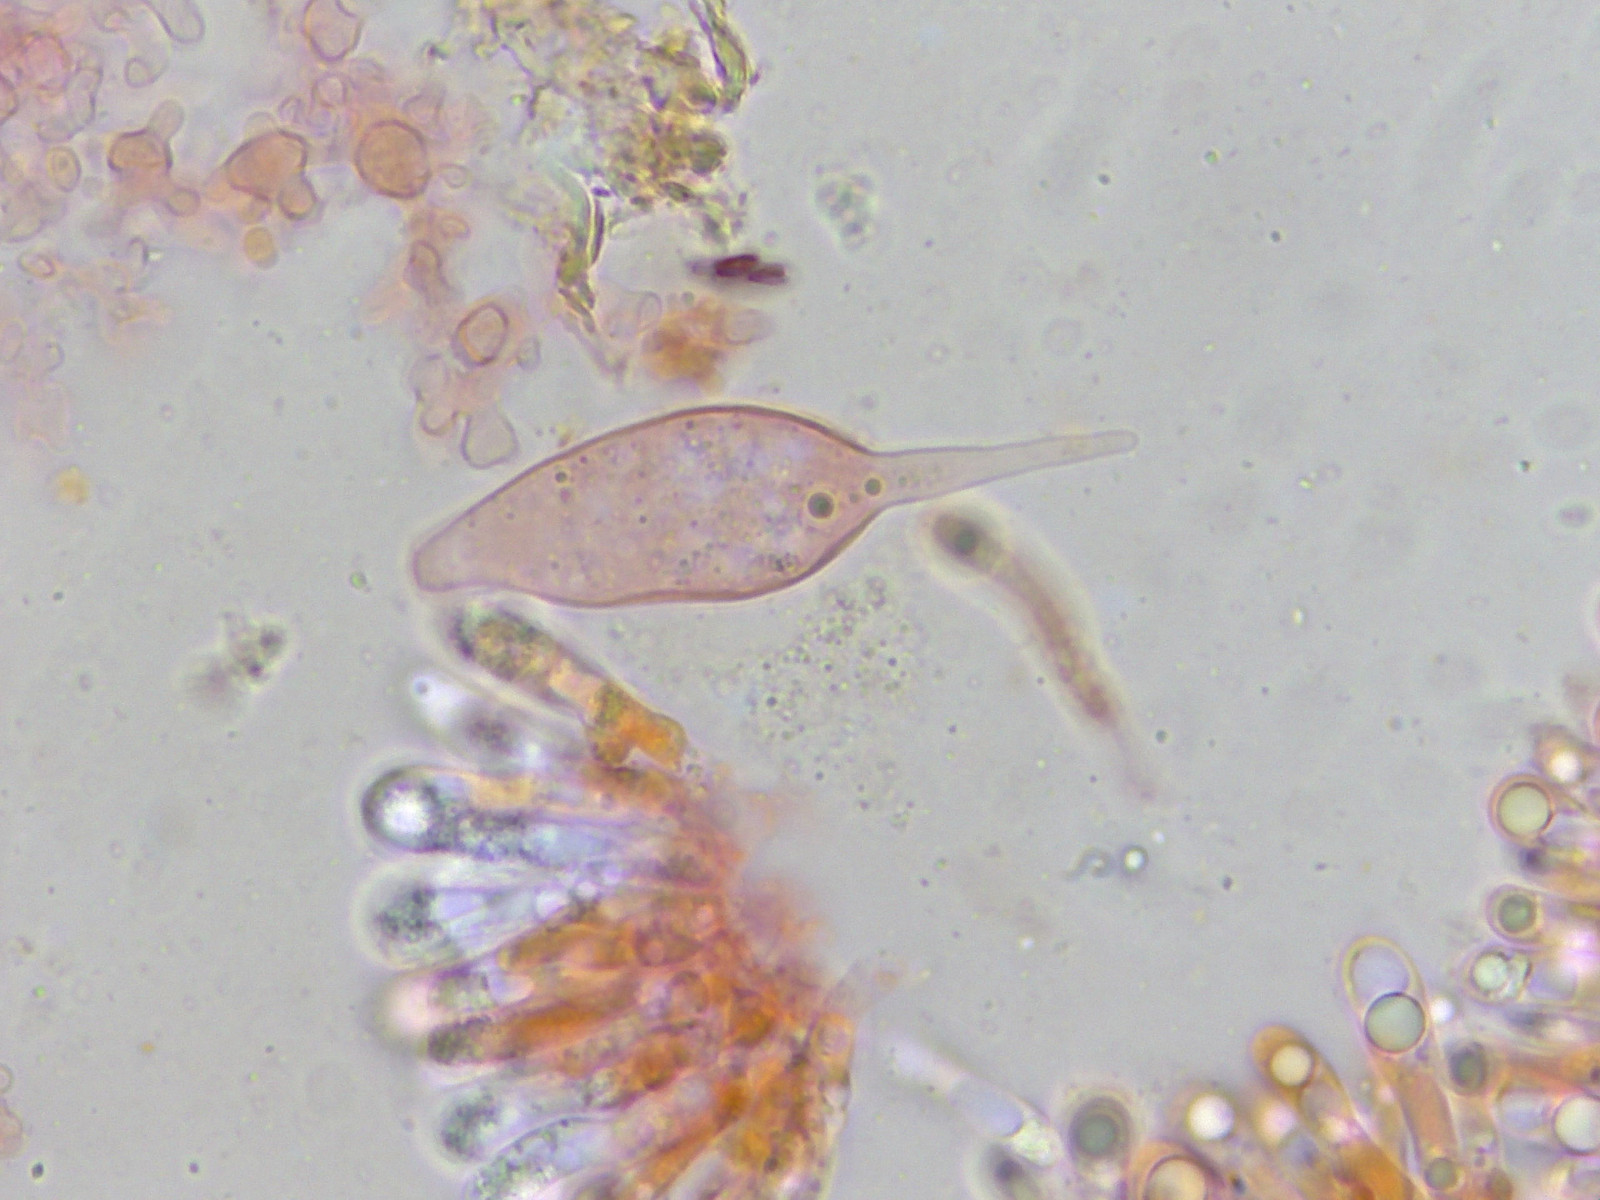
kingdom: Fungi
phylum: Basidiomycota
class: Agaricomycetes
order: Agaricales
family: Mycenaceae
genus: Mycena
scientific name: Mycena haematopus
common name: blødende huesvamp
